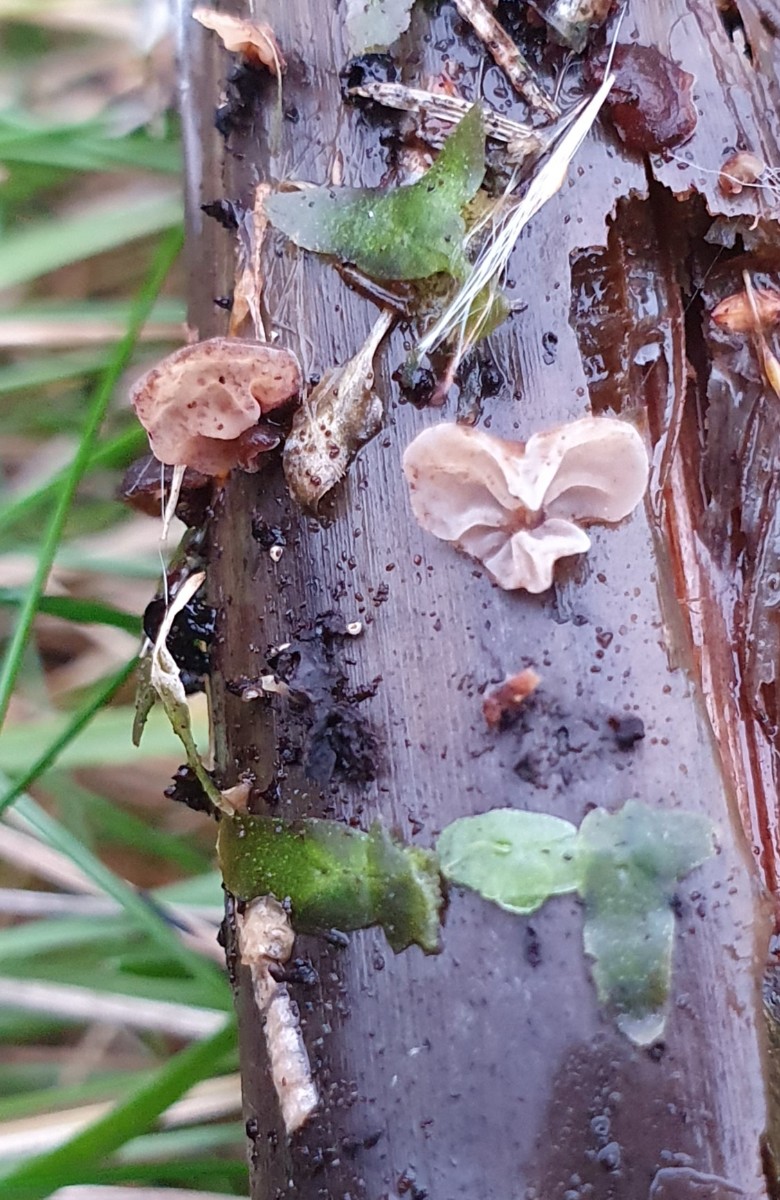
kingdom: Fungi
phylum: Basidiomycota
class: Agaricomycetes
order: Agaricales
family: Physalacriaceae
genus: Gloiocephala
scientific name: Gloiocephala menieri
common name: dunhammer-spatelhat
